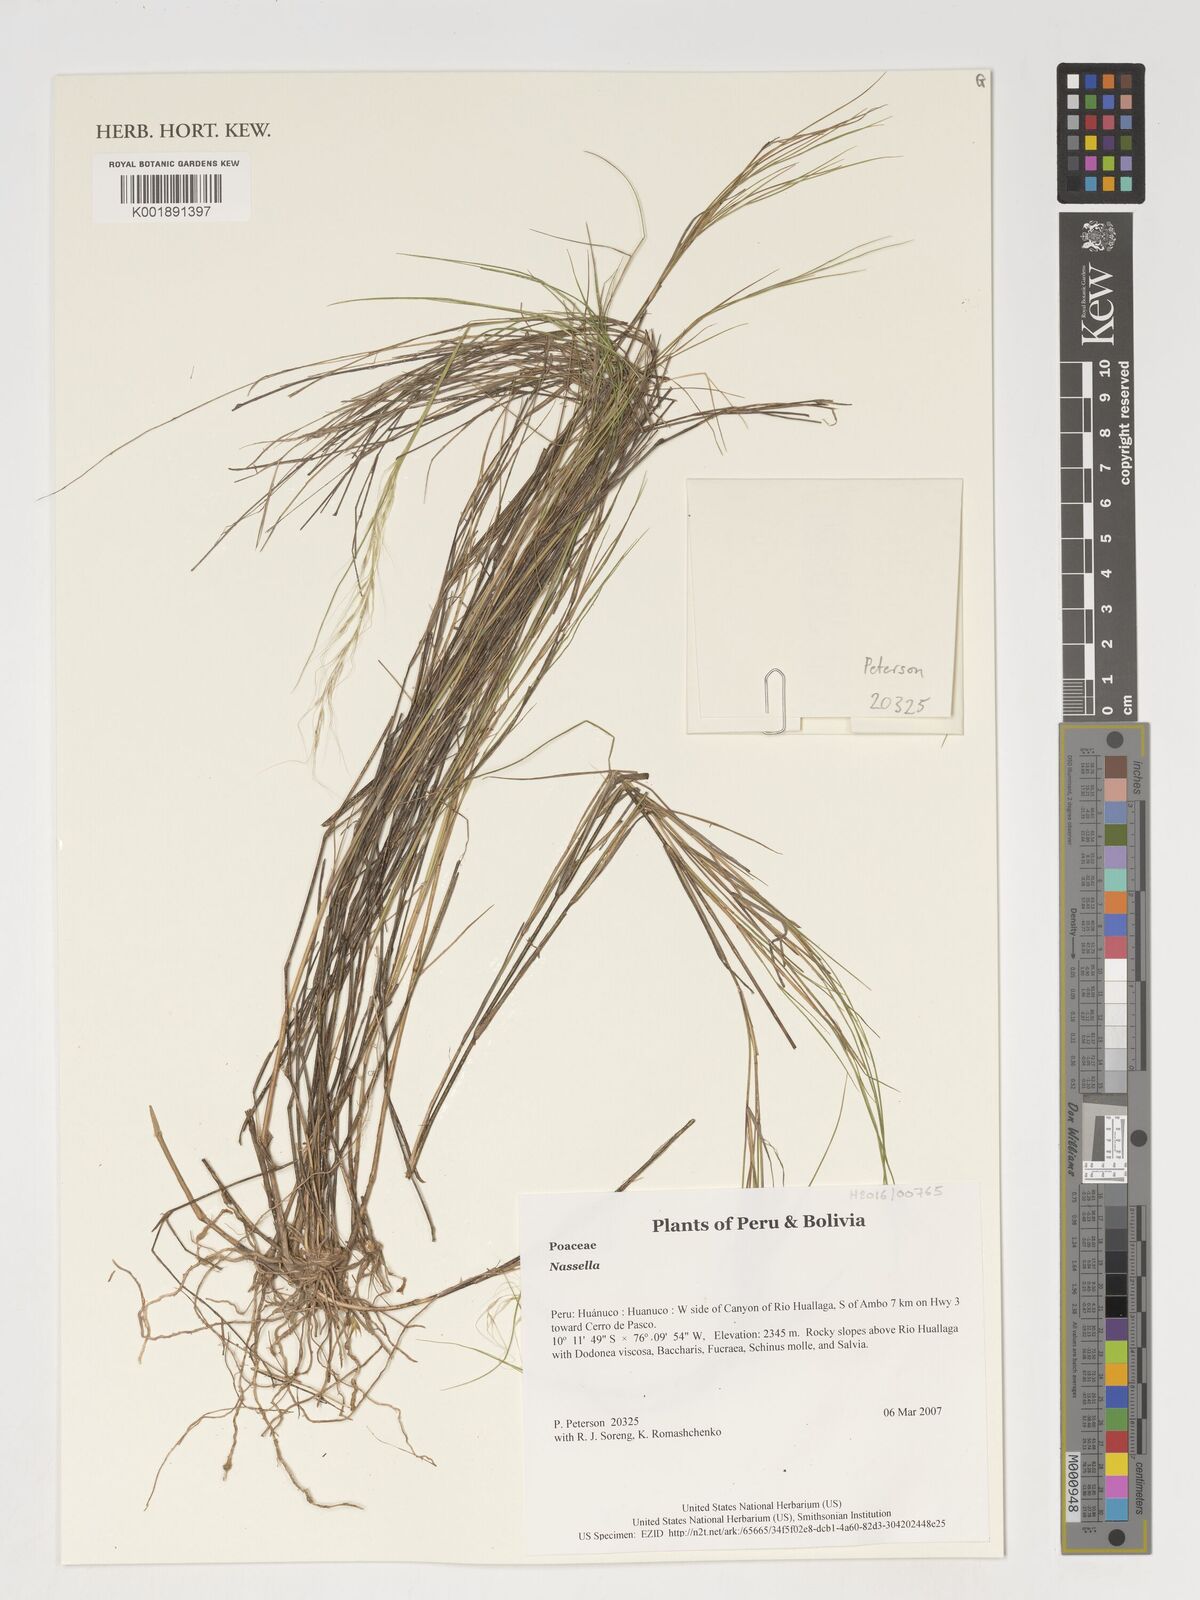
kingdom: Plantae
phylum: Tracheophyta
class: Liliopsida
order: Poales
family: Poaceae
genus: Nassella
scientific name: Nassella
